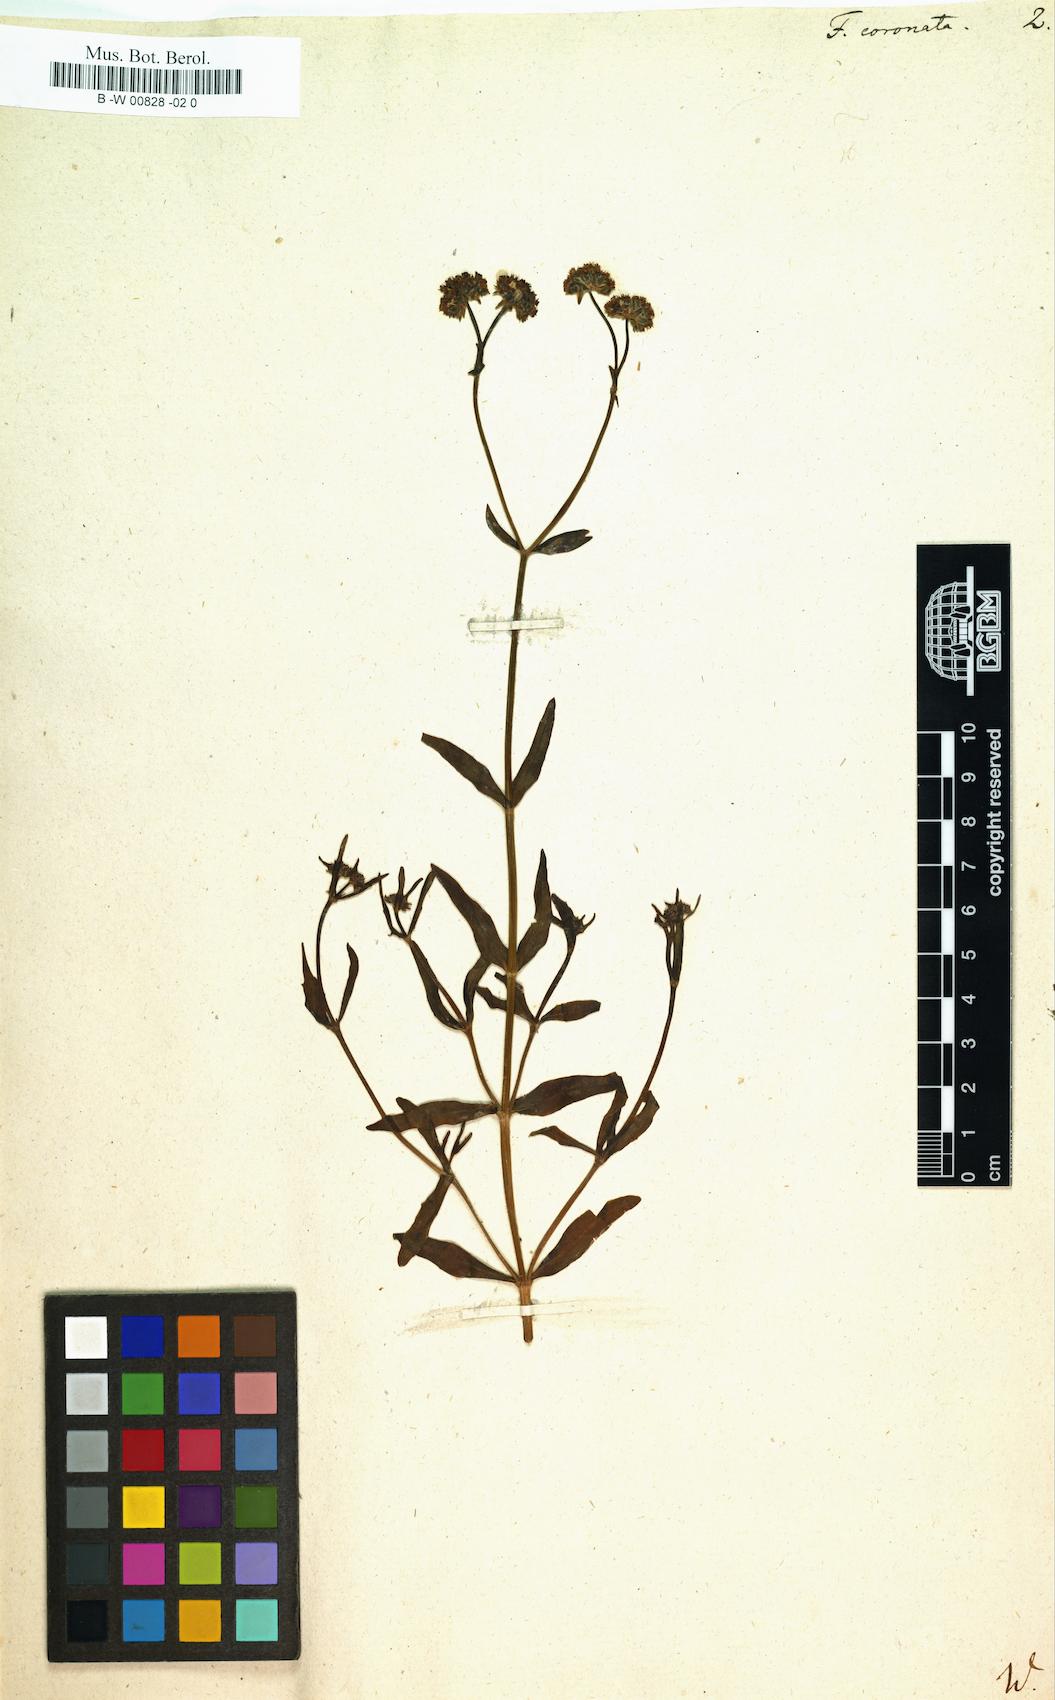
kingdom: Plantae
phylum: Tracheophyta
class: Magnoliopsida
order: Dipsacales
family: Caprifoliaceae
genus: Valerianella
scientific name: Valerianella
